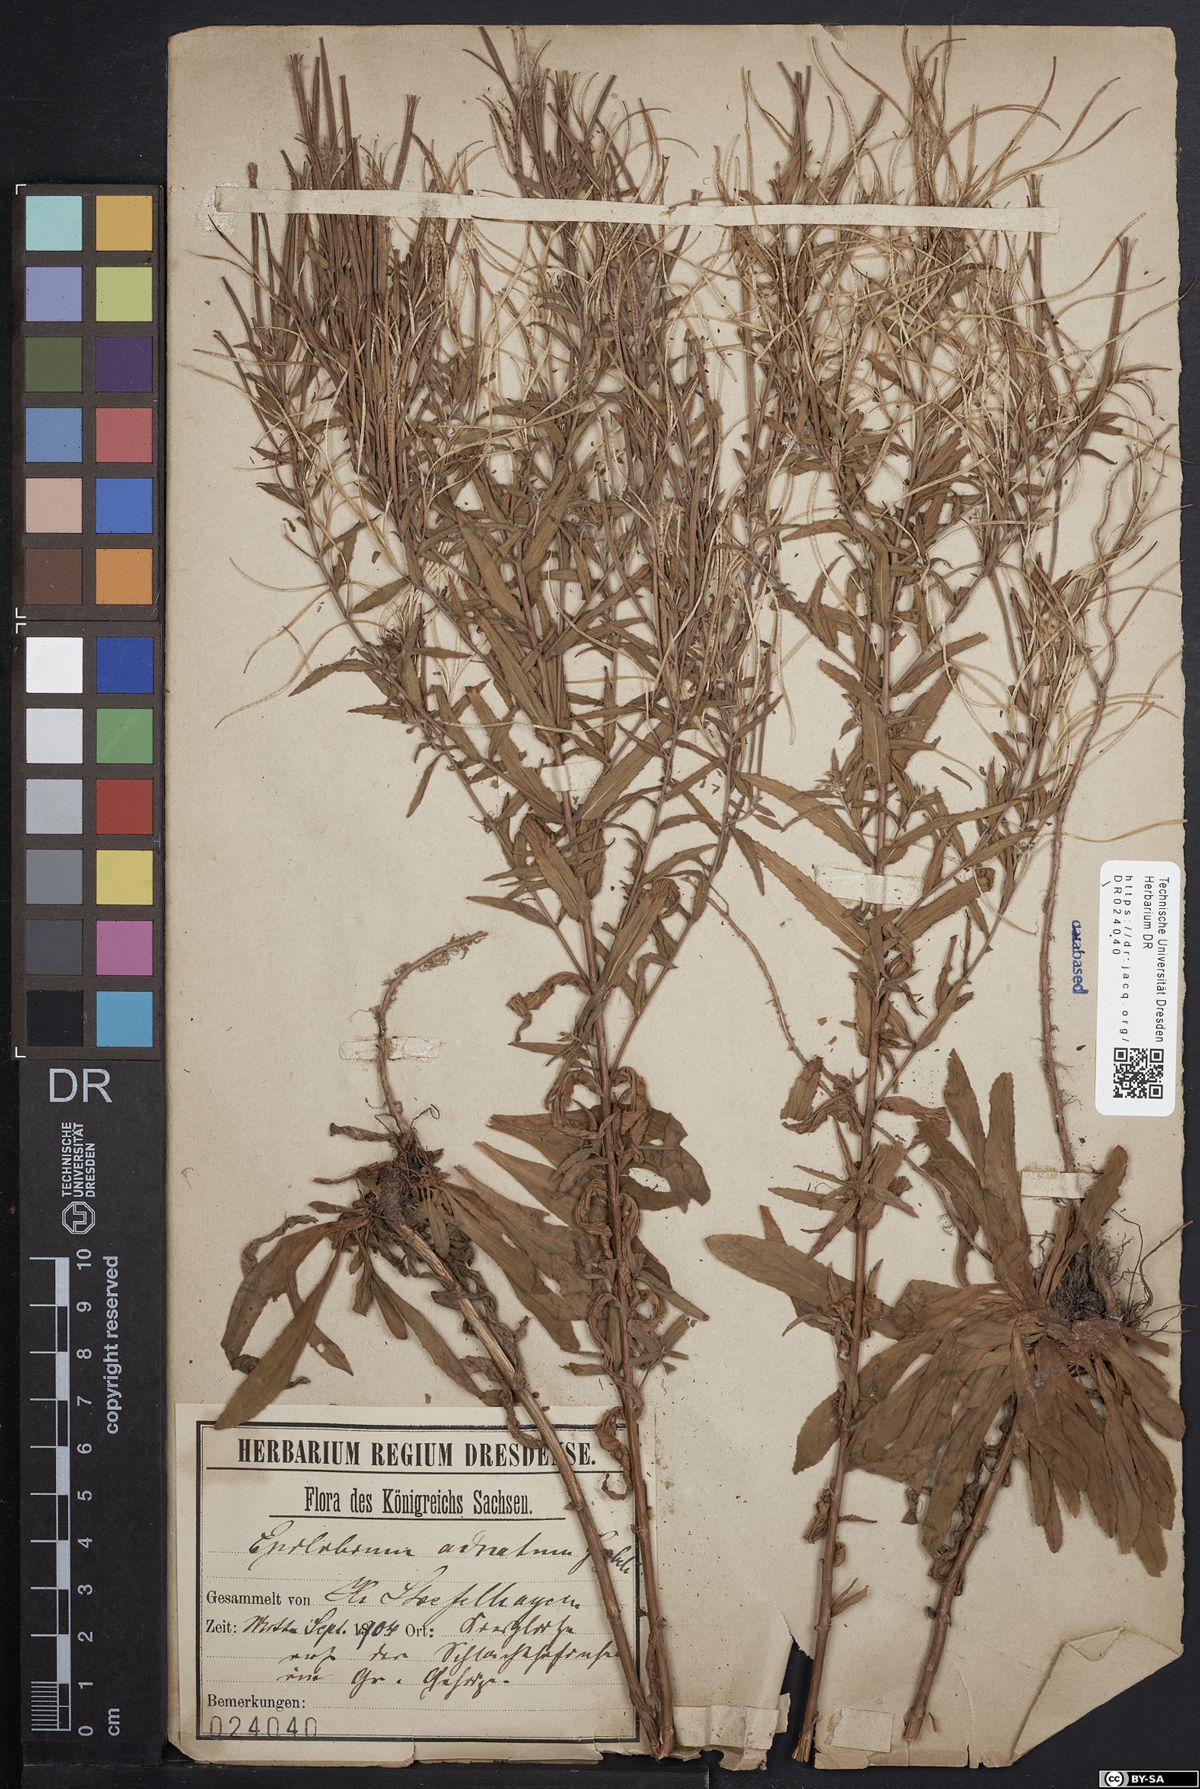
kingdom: Plantae
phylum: Tracheophyta
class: Magnoliopsida
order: Myrtales
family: Onagraceae
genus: Epilobium
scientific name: Epilobium tetragonum
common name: Square-stemmed willowherb
